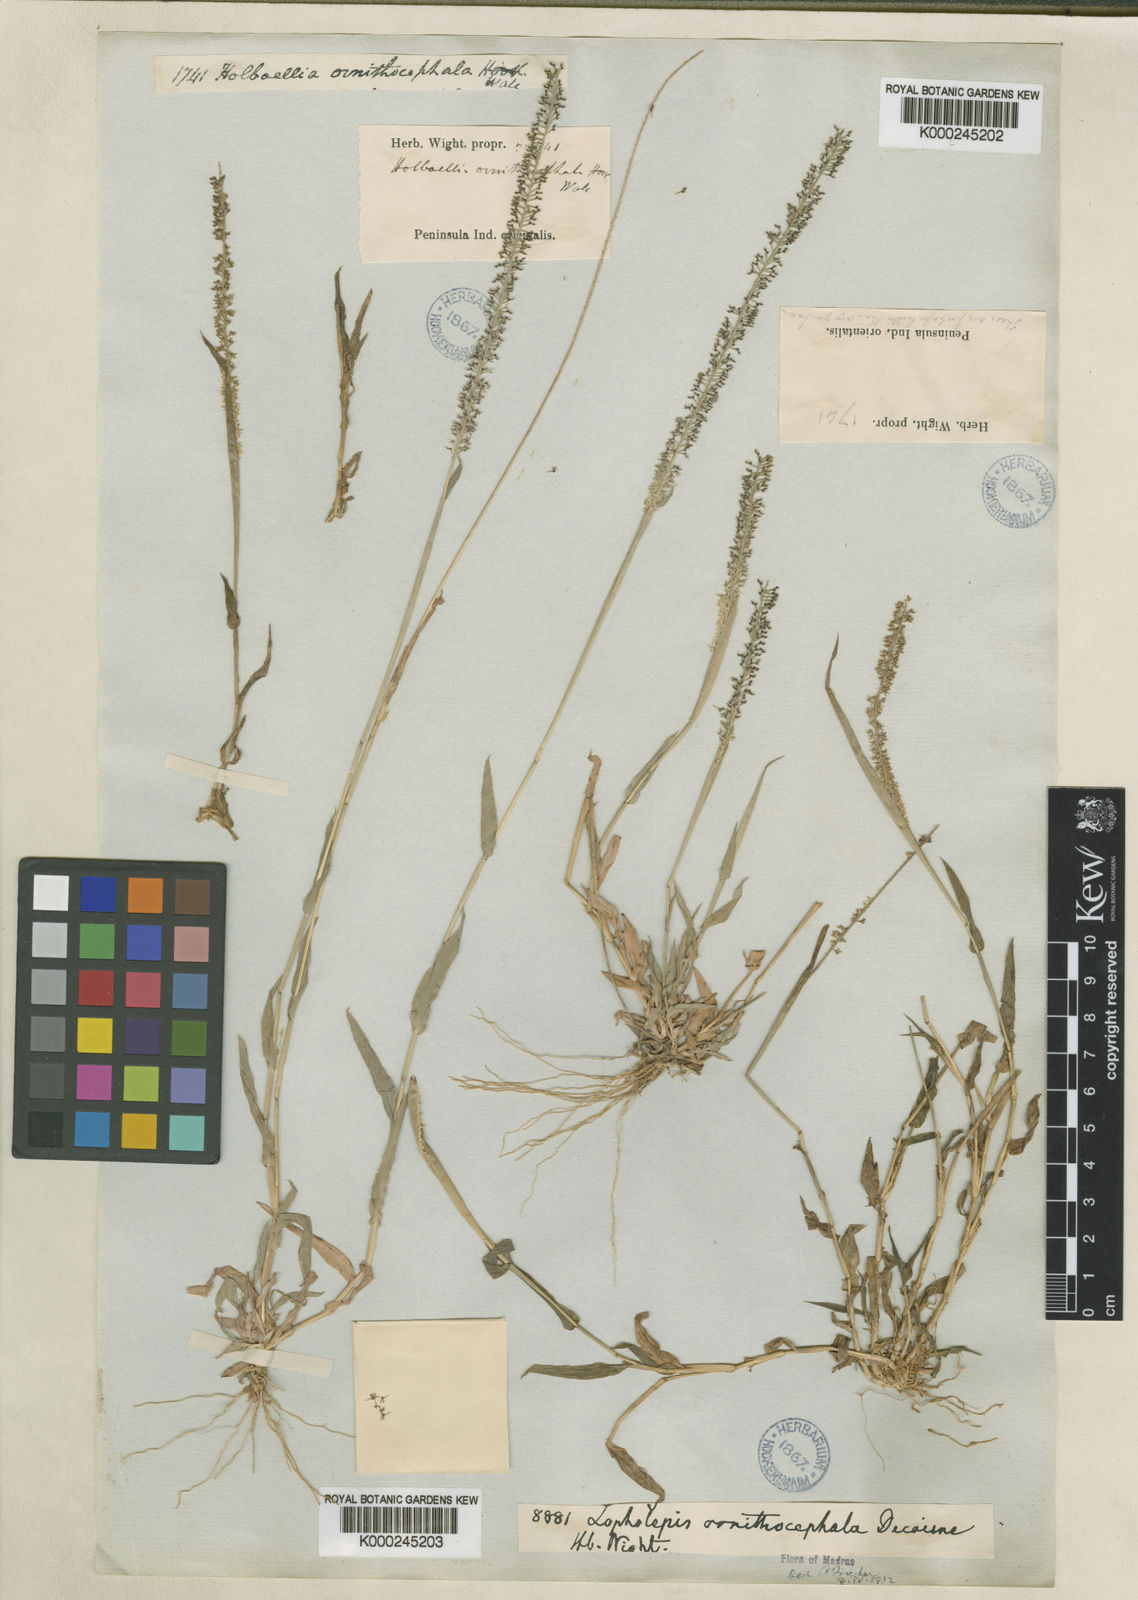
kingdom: Plantae
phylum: Tracheophyta
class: Liliopsida
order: Poales
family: Poaceae
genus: Perotis
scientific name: Perotis ornithocephala
